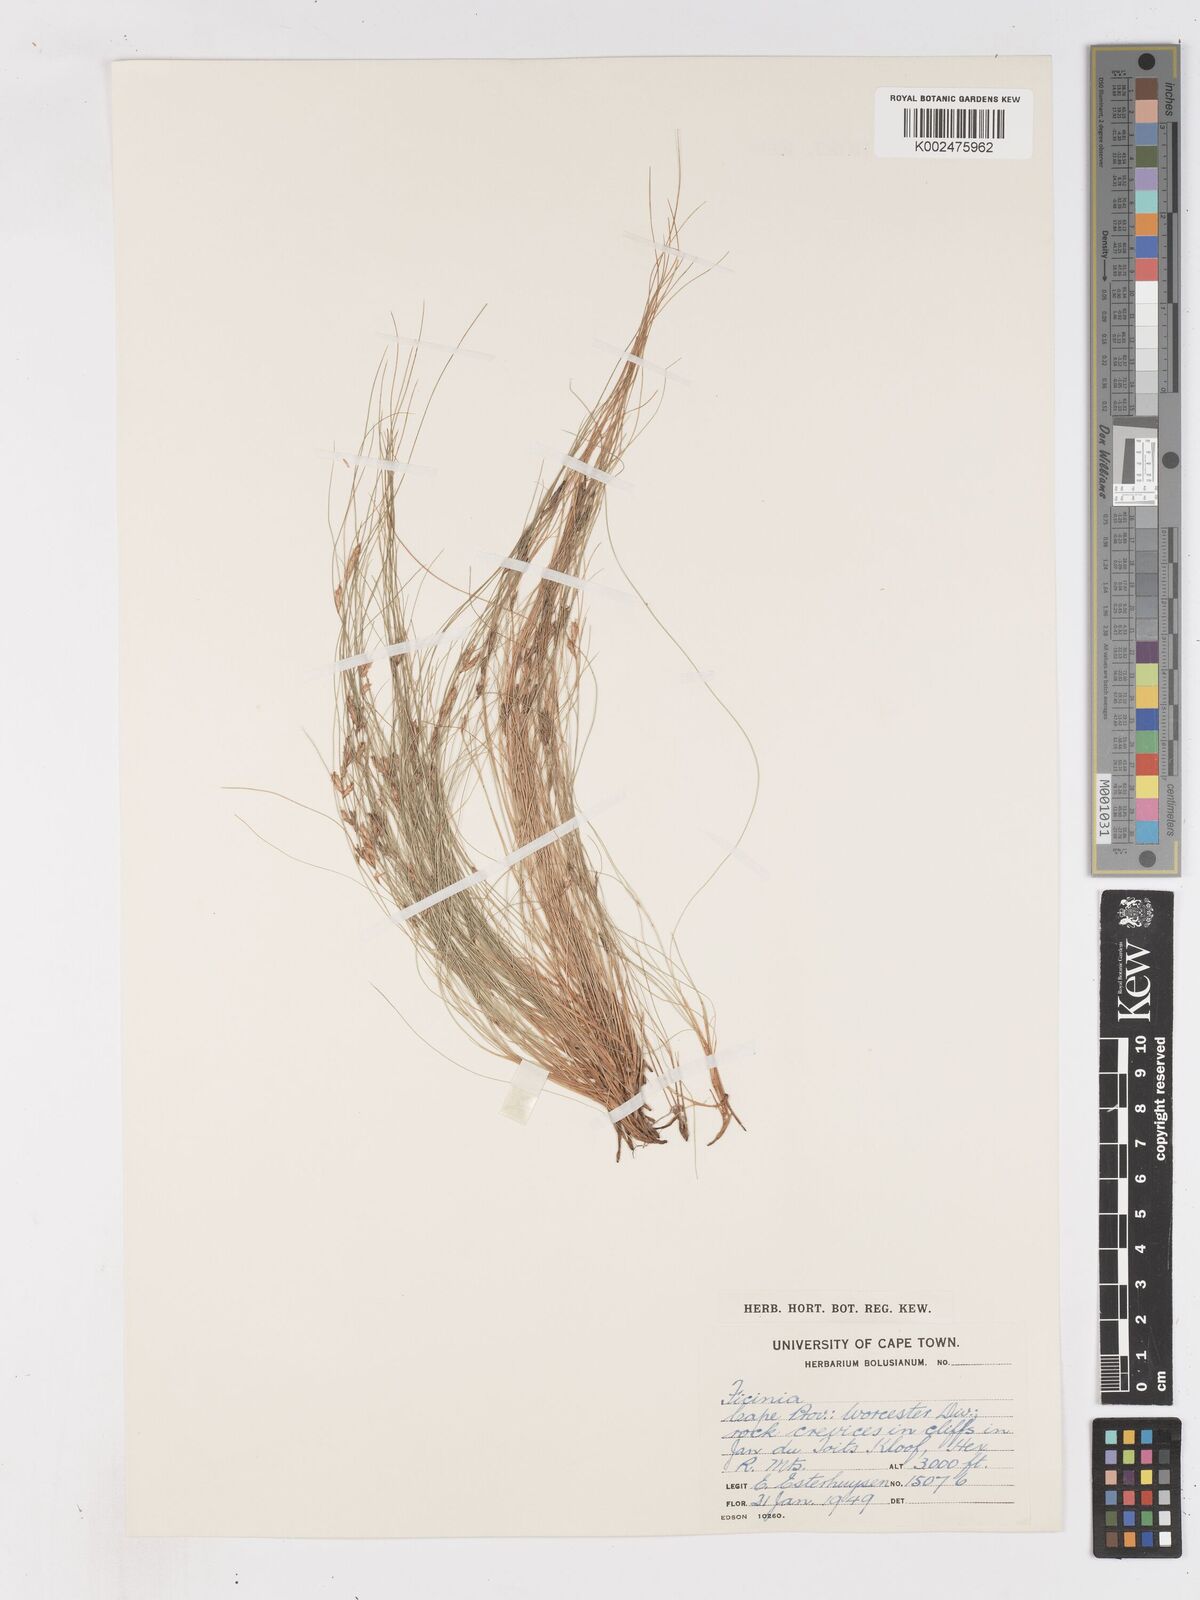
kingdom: Plantae
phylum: Tracheophyta
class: Liliopsida
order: Poales
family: Cyperaceae
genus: Ficinia
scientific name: Ficinia esterhuyseniae
